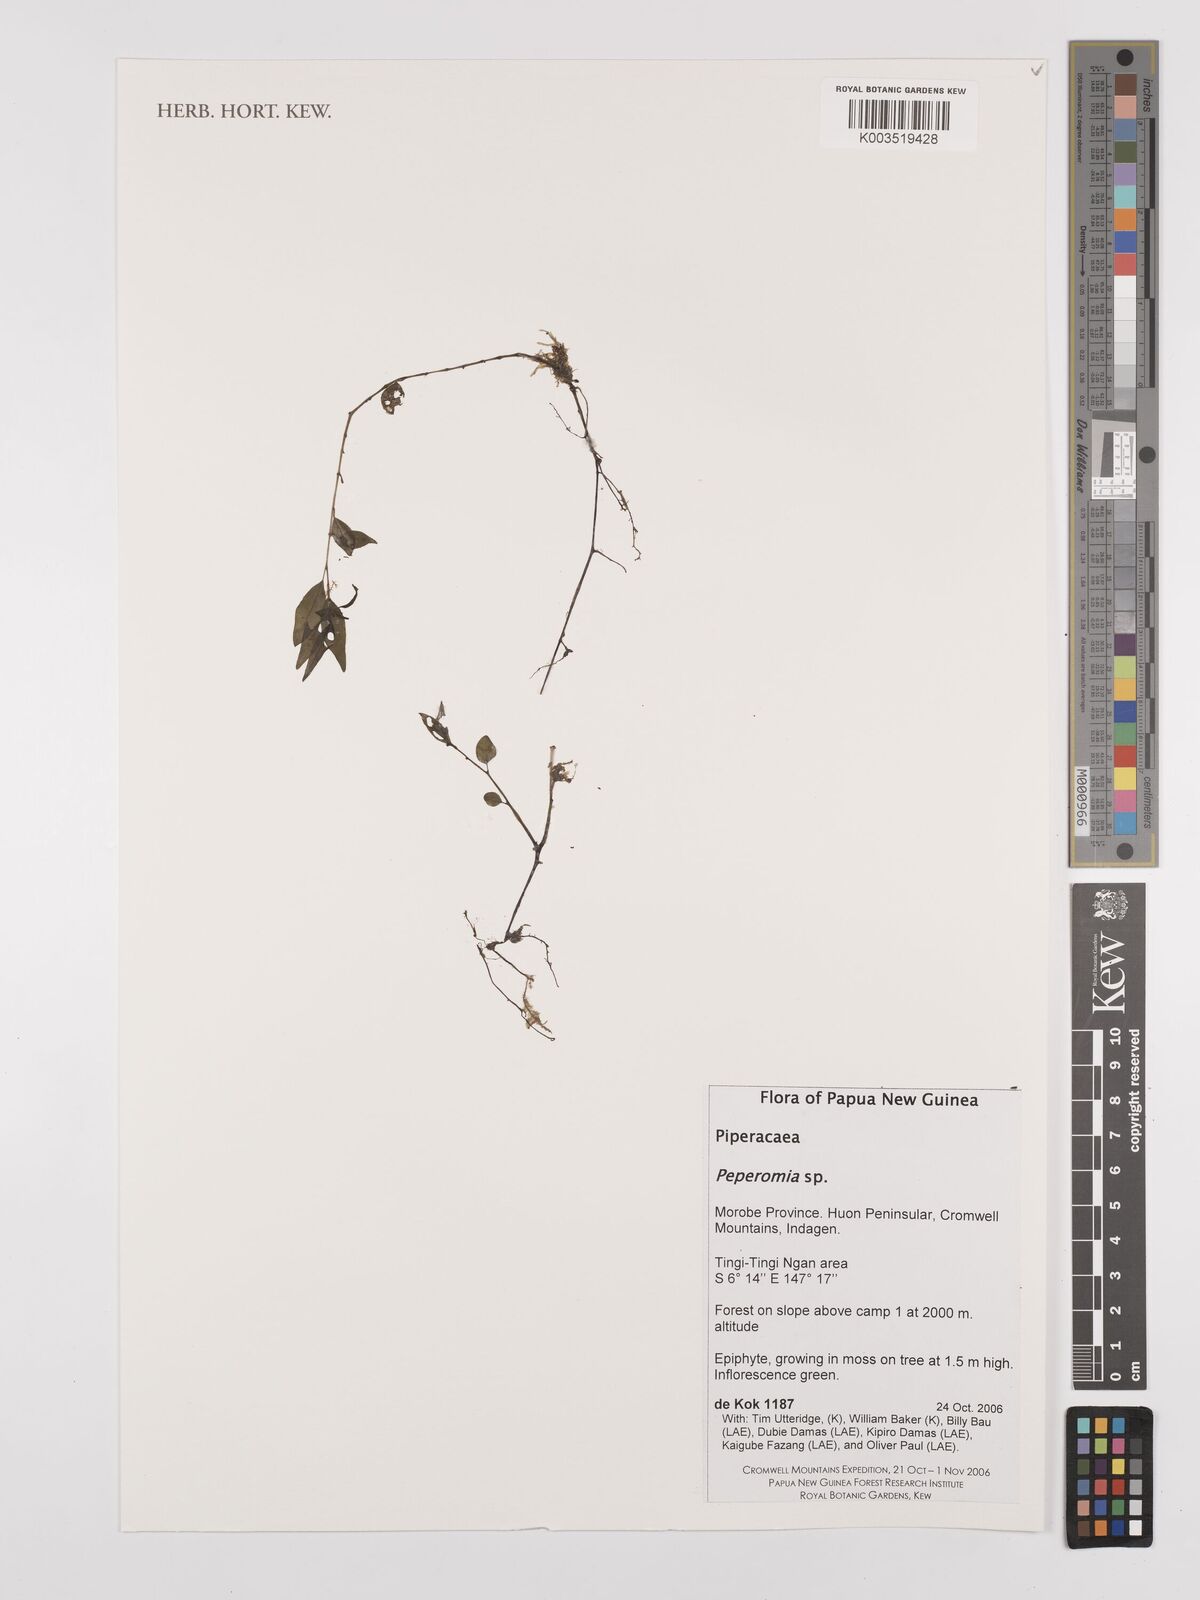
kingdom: Plantae
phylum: Tracheophyta
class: Magnoliopsida
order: Piperales
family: Piperaceae
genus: Peperomia
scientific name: Peperomia
